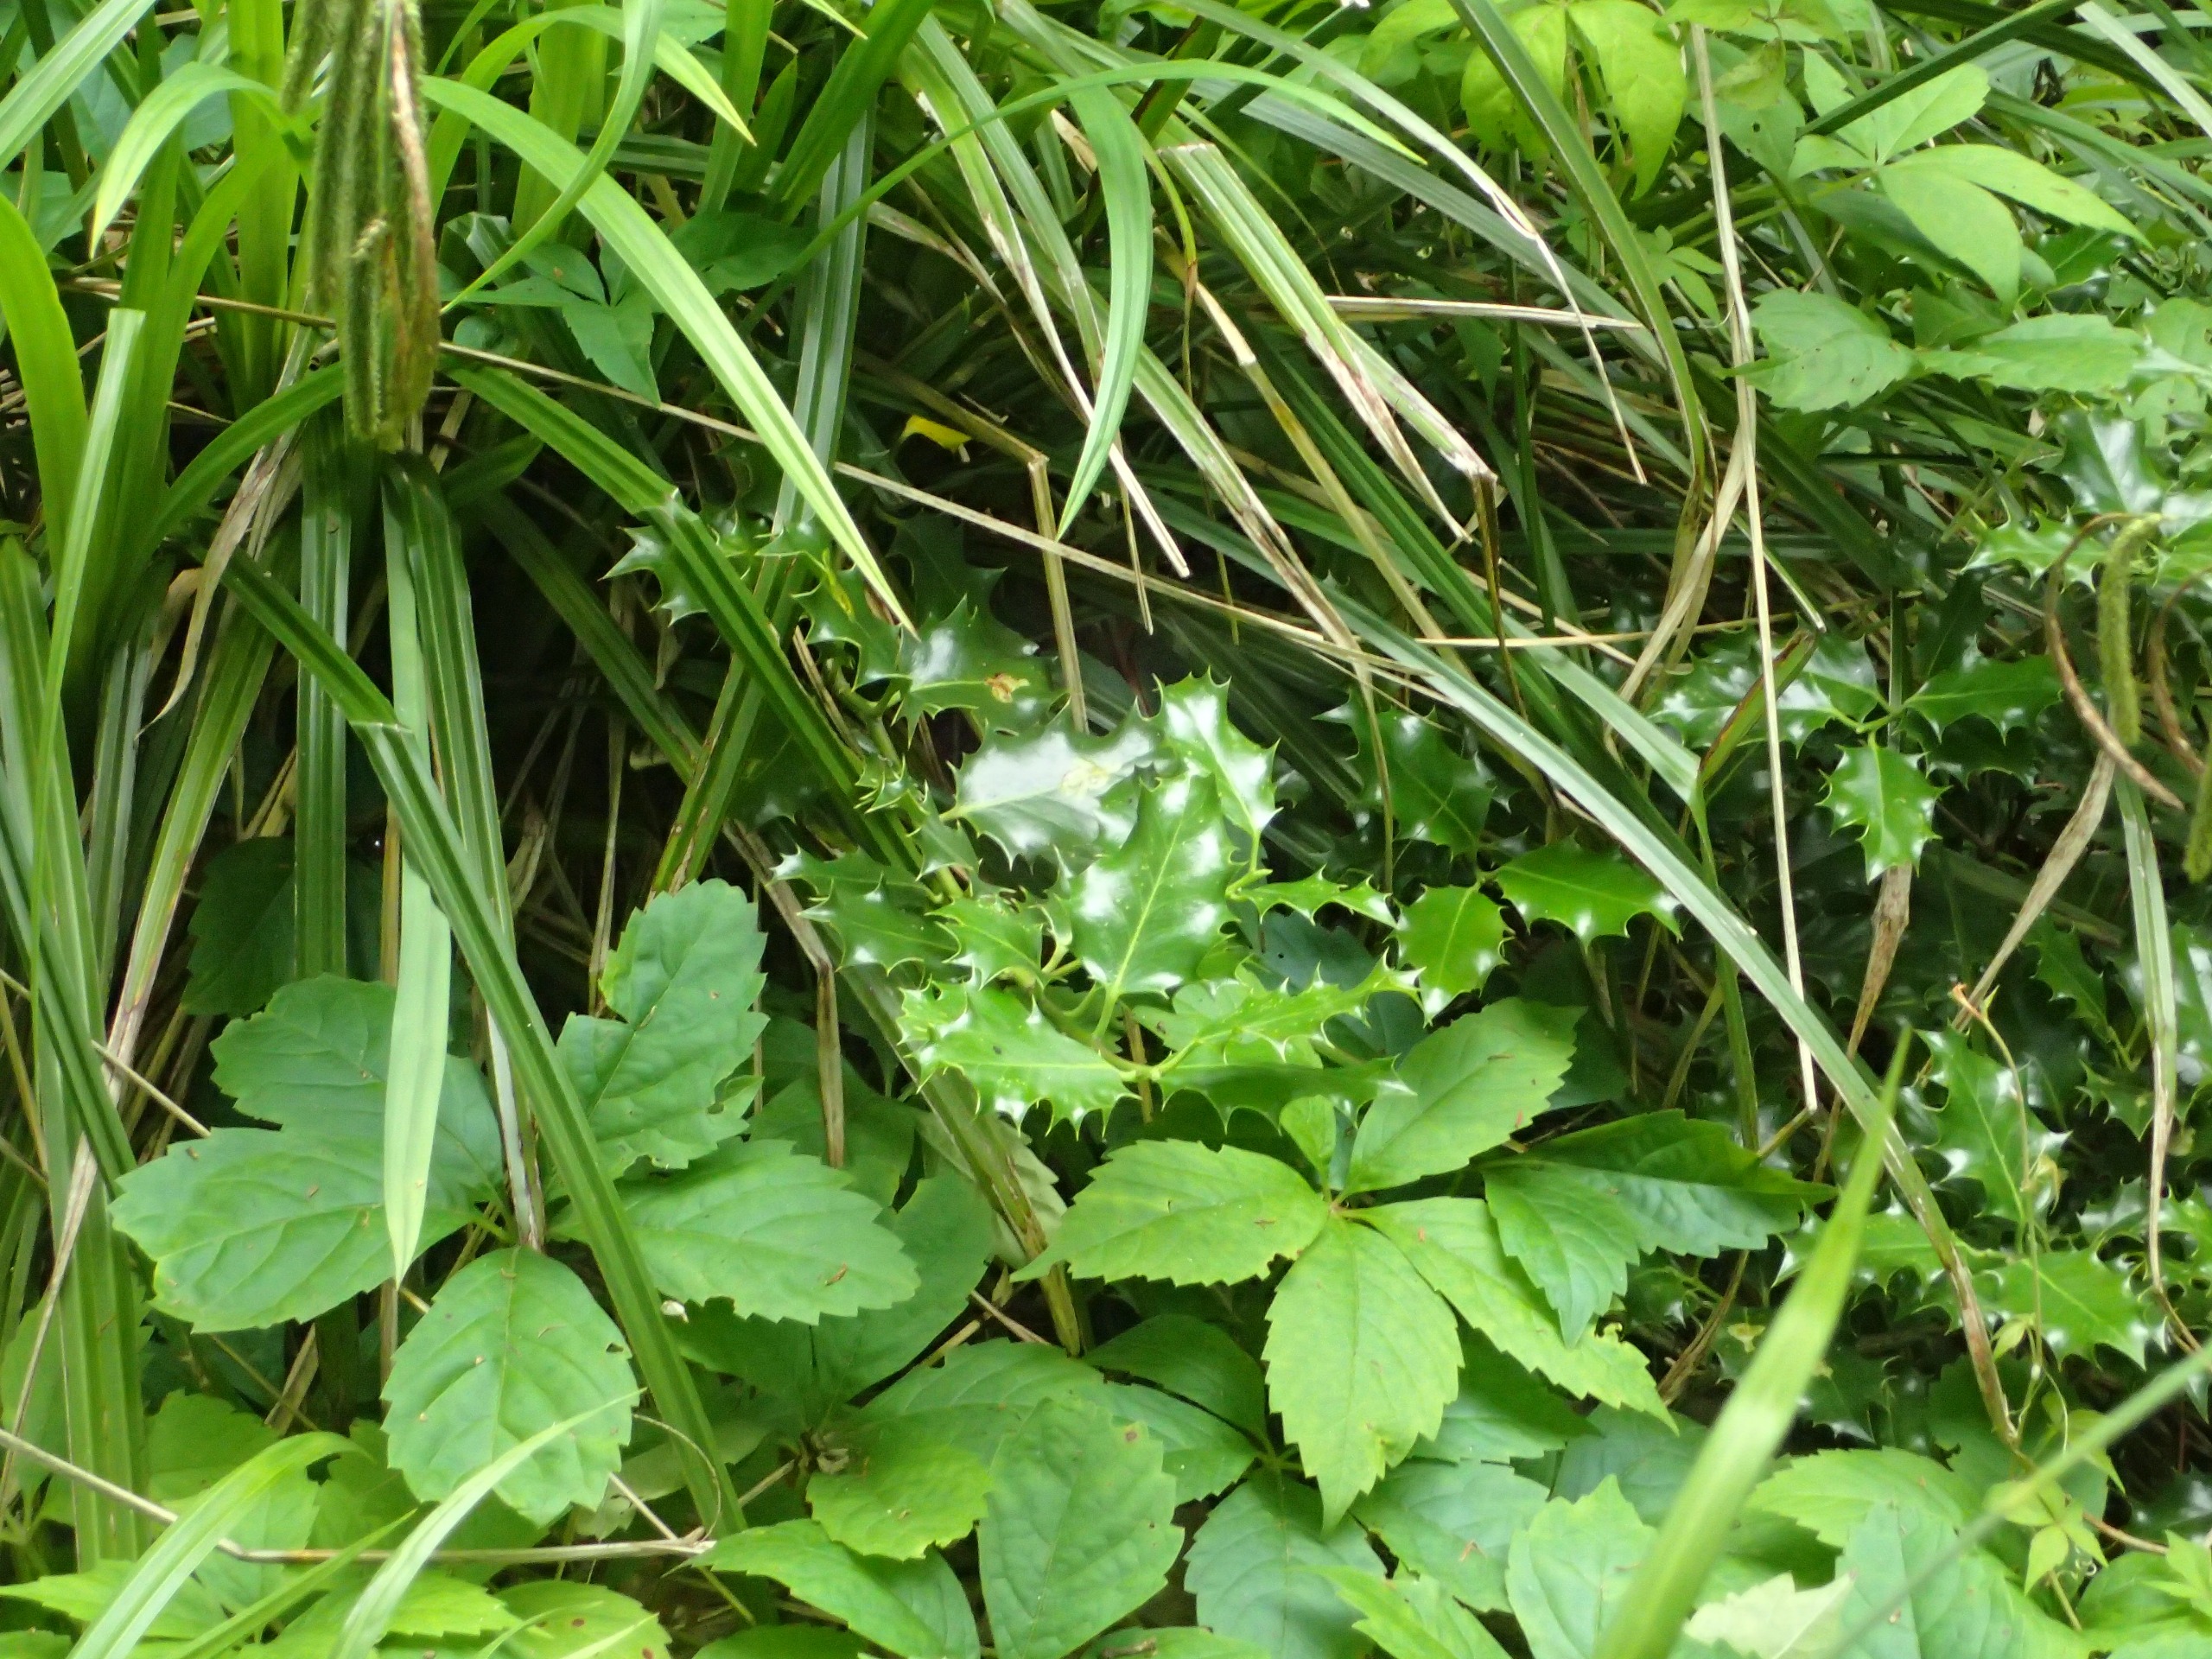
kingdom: Plantae
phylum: Tracheophyta
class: Magnoliopsida
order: Aquifoliales
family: Aquifoliaceae
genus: Ilex
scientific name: Ilex aquifolium
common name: Kristtorn
